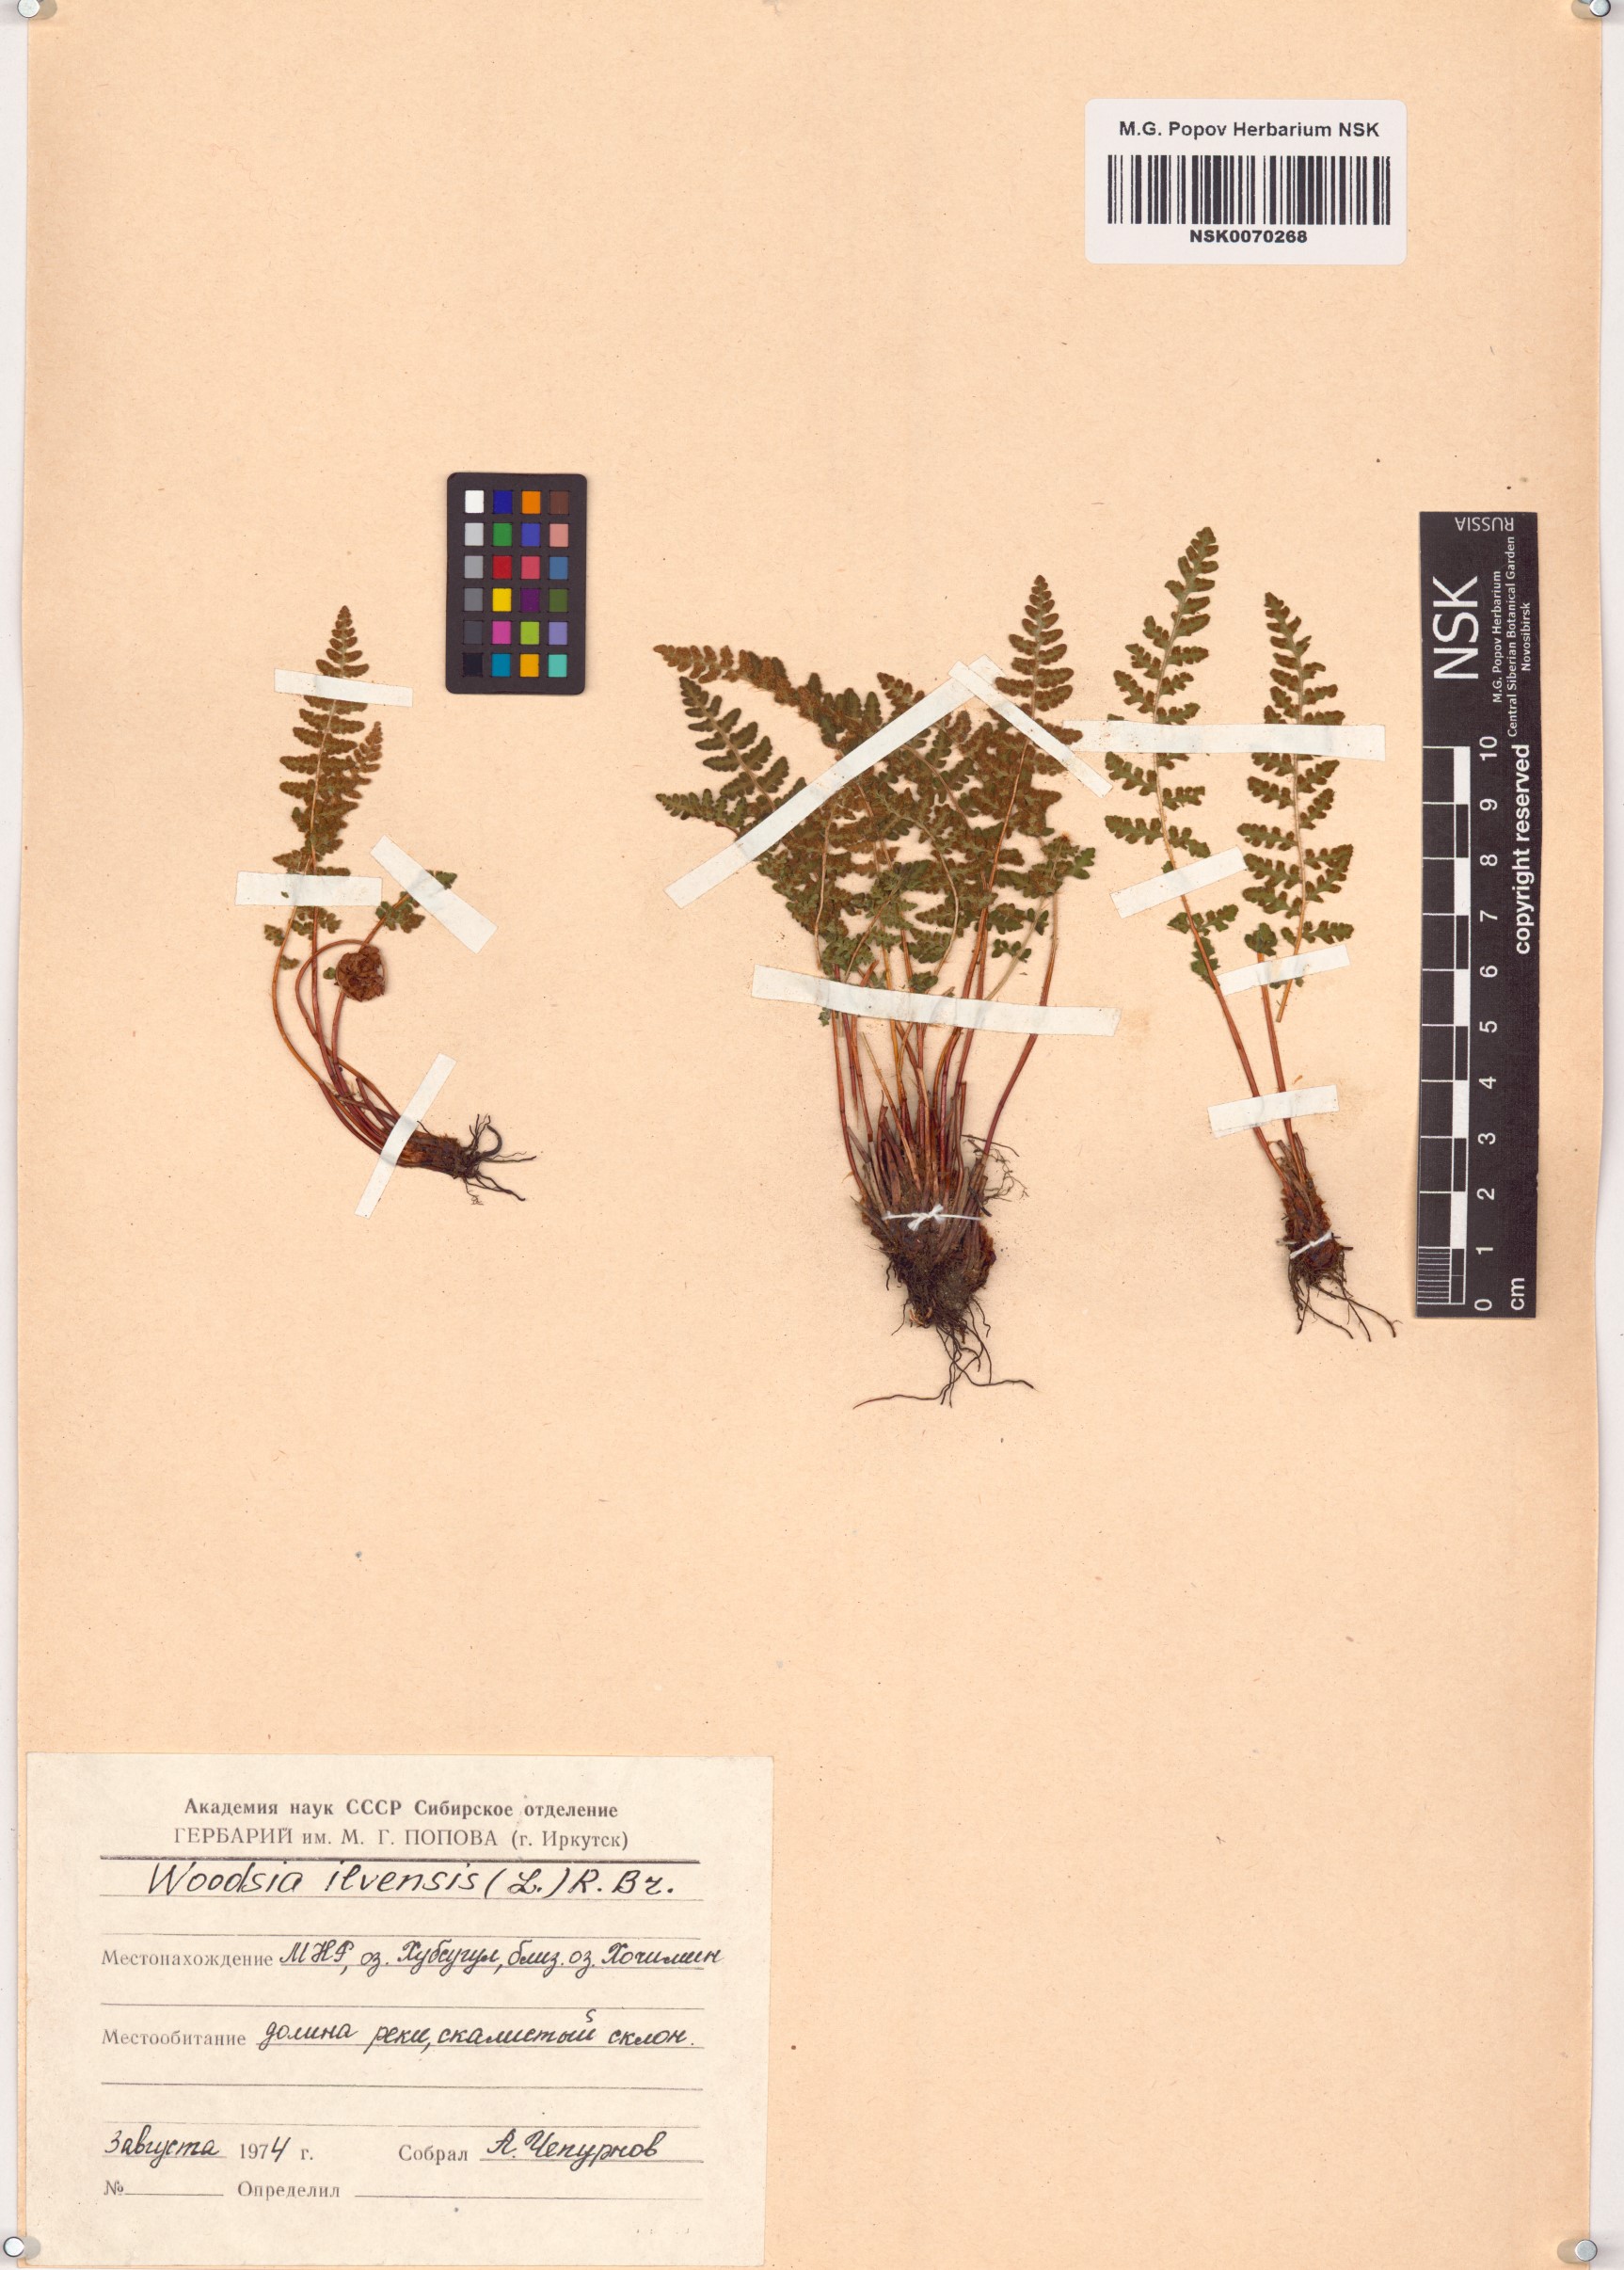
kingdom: Plantae
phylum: Tracheophyta
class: Polypodiopsida
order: Polypodiales
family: Woodsiaceae
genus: Woodsia
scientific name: Woodsia ilvensis
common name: Fragrant woodsia
